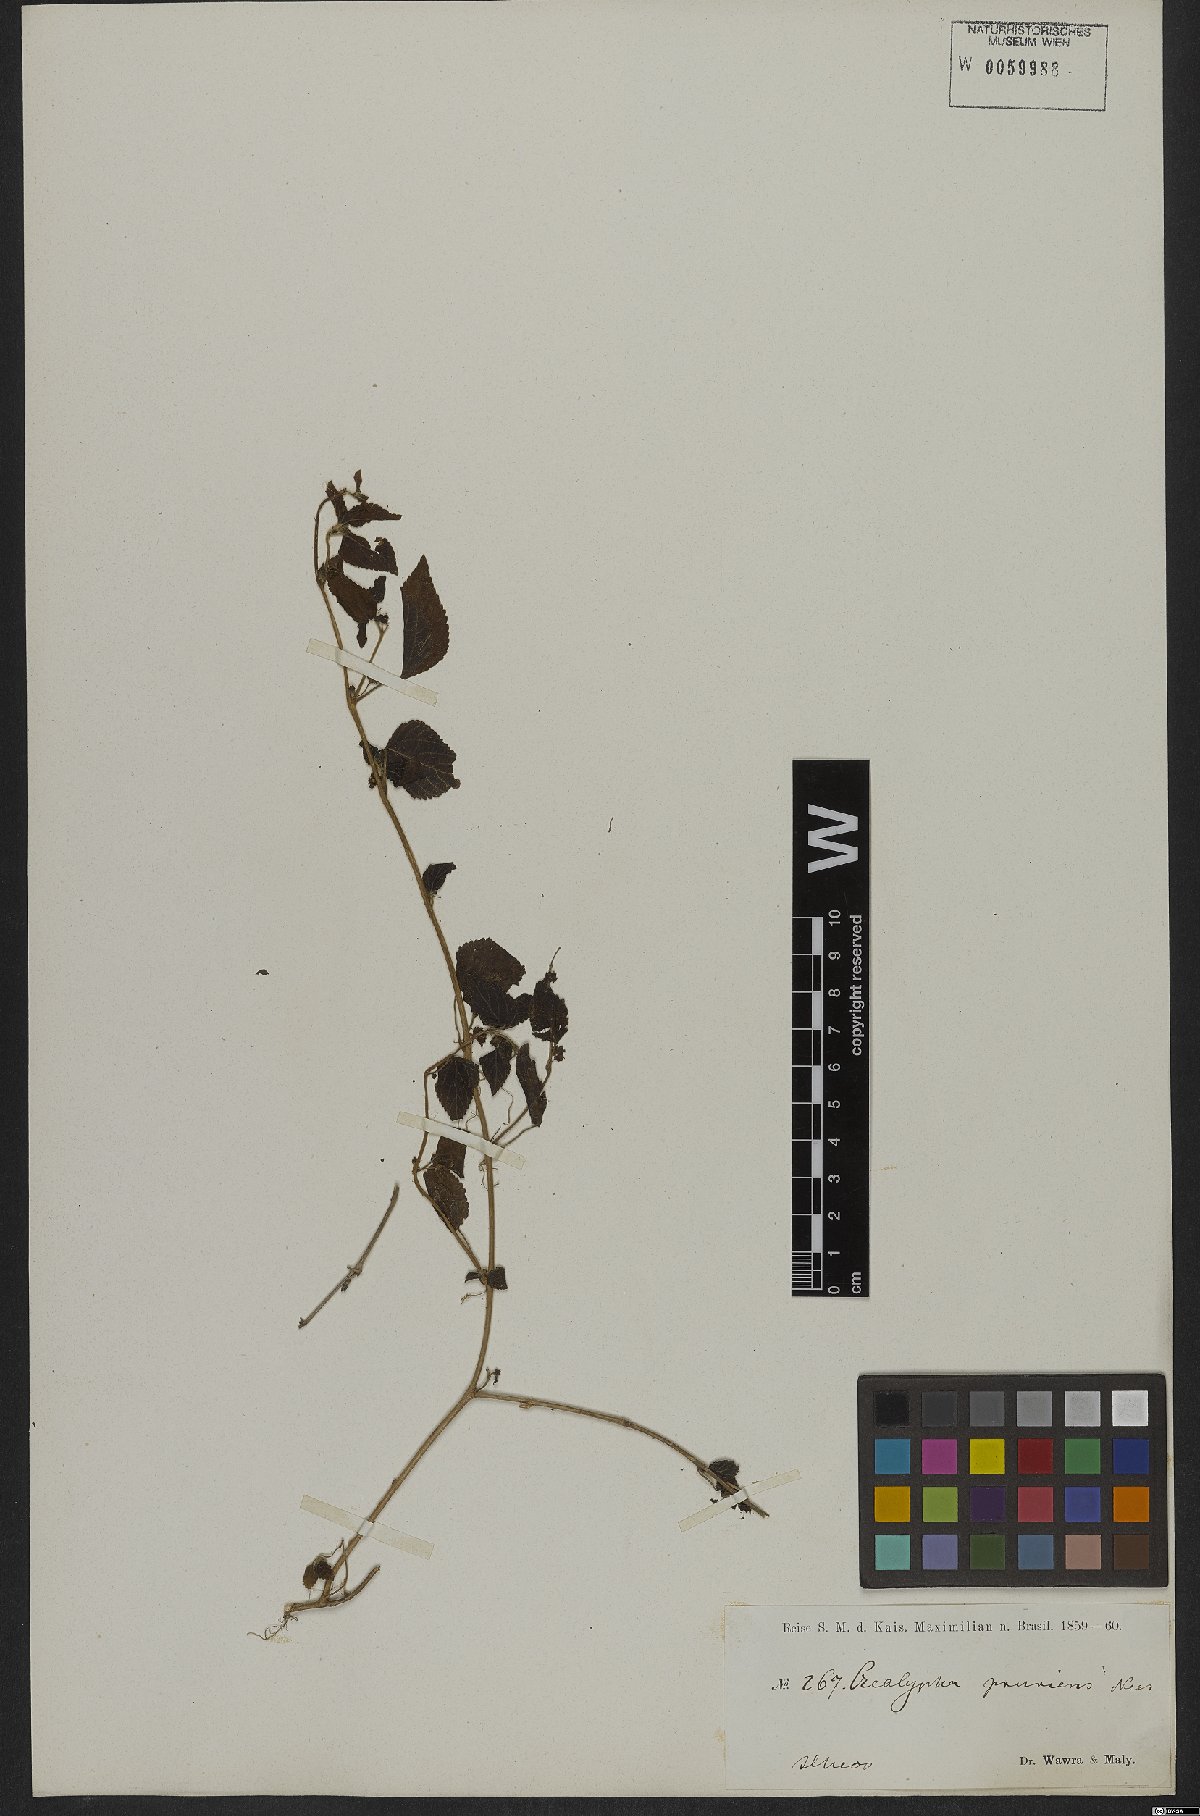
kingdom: Plantae
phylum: Tracheophyta
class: Magnoliopsida
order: Malpighiales
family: Euphorbiaceae
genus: Acalypha
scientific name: Acalypha pruriens
